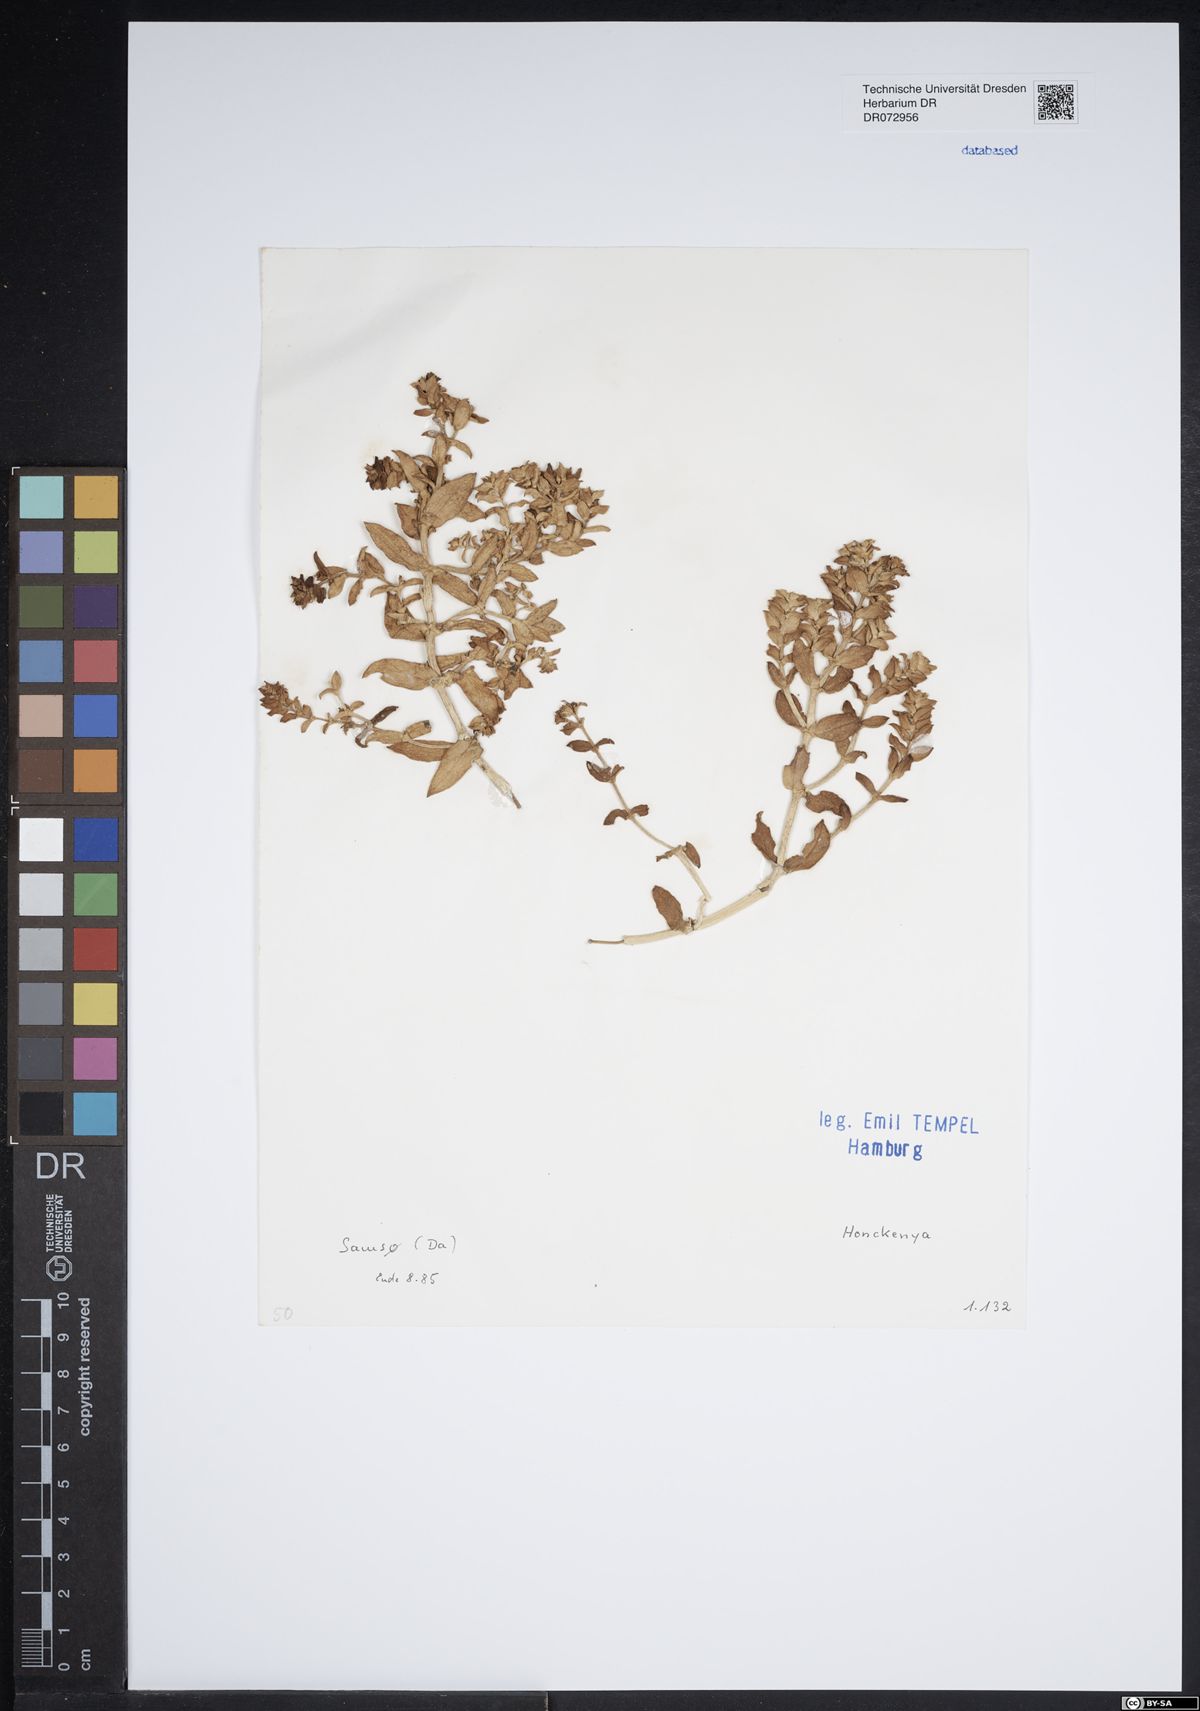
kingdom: Plantae
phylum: Tracheophyta
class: Magnoliopsida
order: Caryophyllales
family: Caryophyllaceae
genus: Honckenya
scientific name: Honckenya
